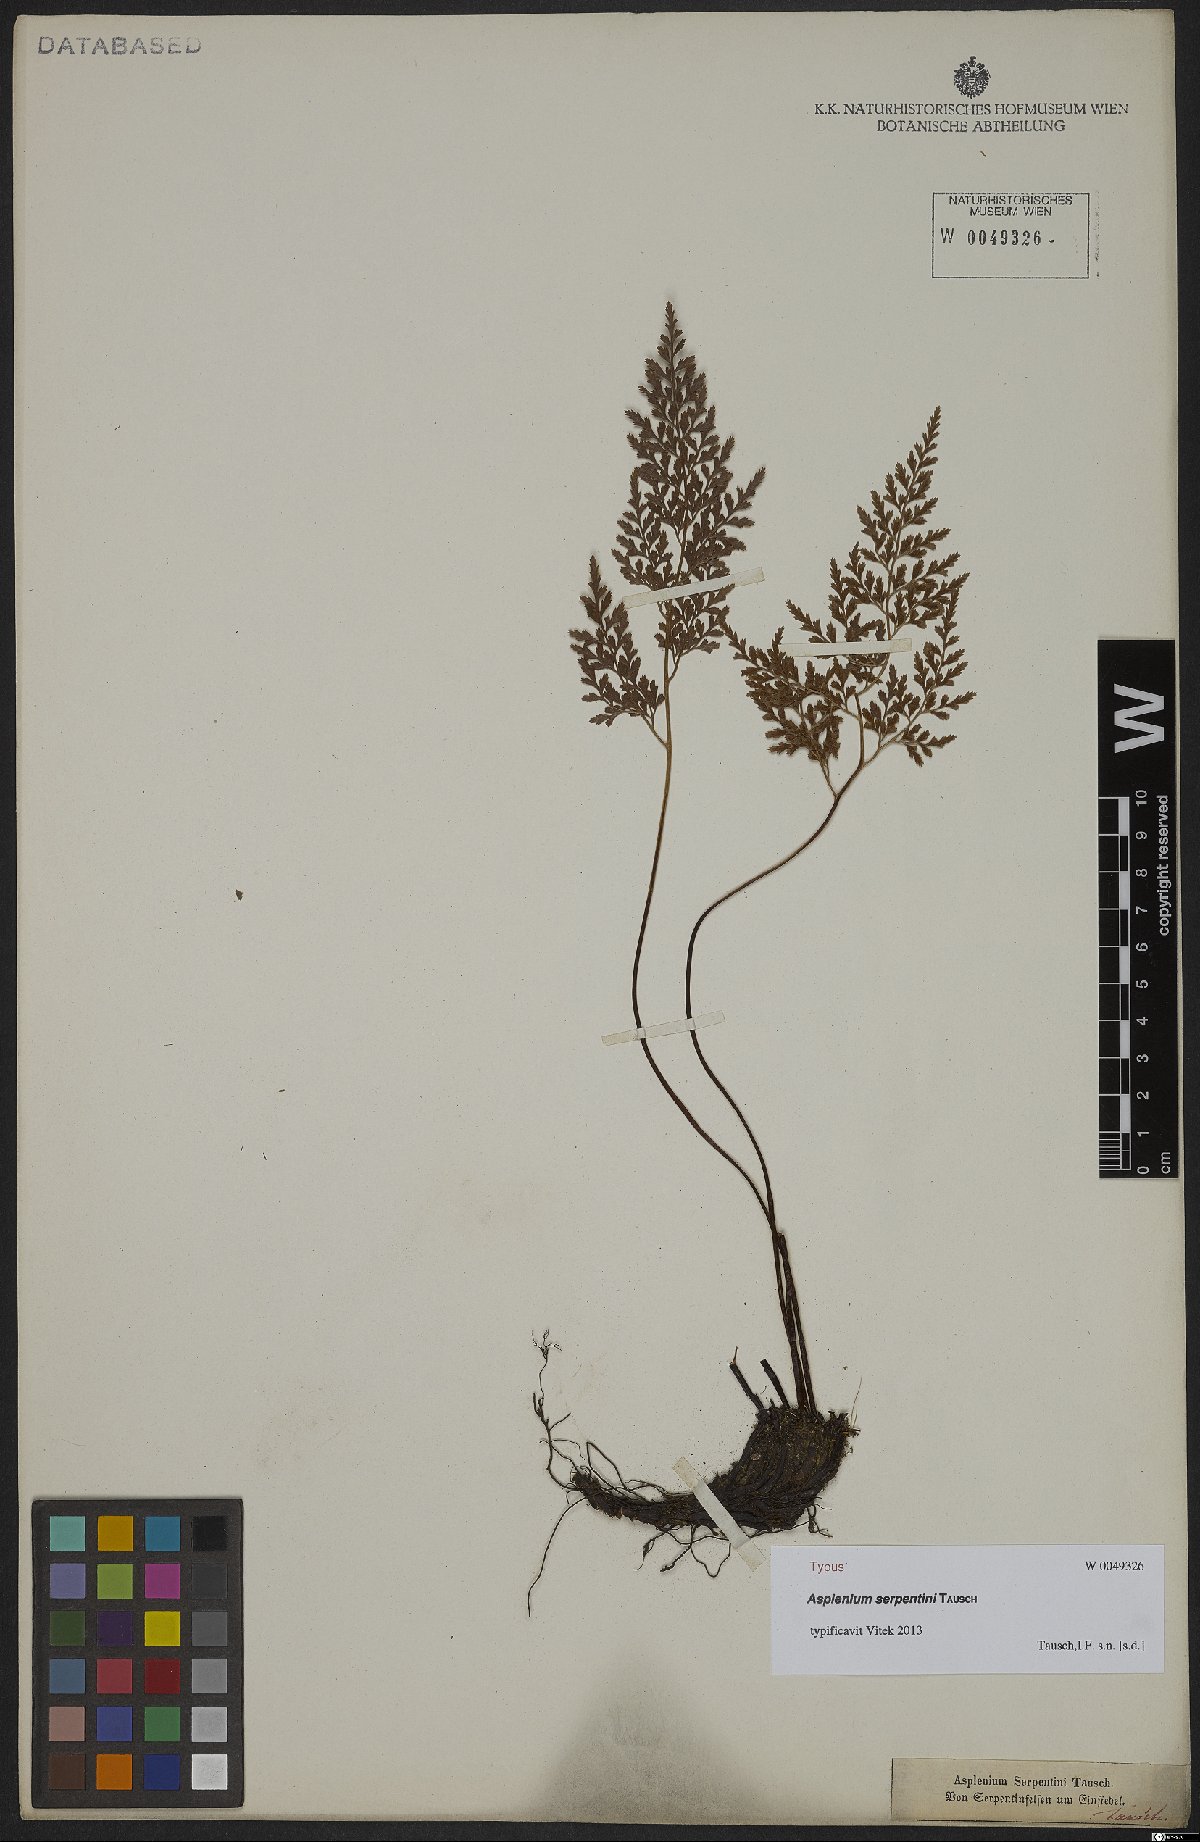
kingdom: Plantae
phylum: Tracheophyta
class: Polypodiopsida
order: Polypodiales
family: Aspleniaceae
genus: Asplenium
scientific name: Asplenium cuneifolium
